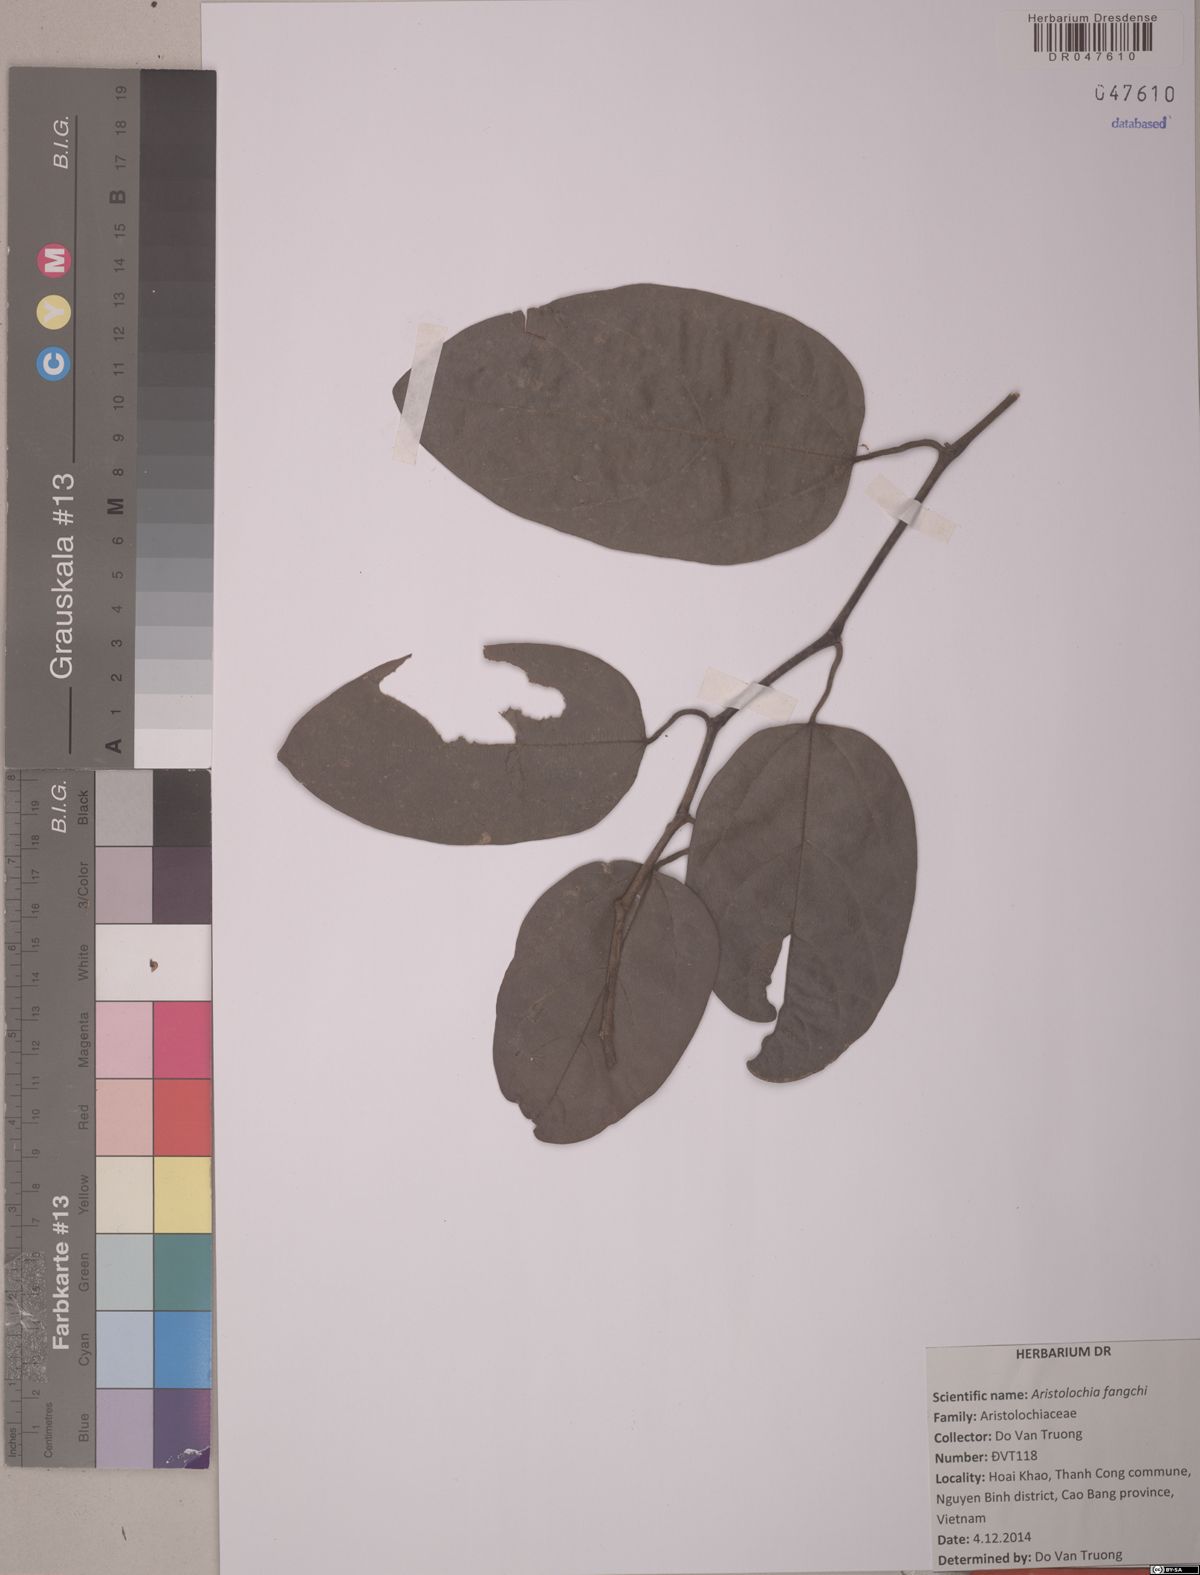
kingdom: Plantae
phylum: Tracheophyta
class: Magnoliopsida
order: Piperales
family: Aristolochiaceae
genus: Isotrema
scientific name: Isotrema fangchi
